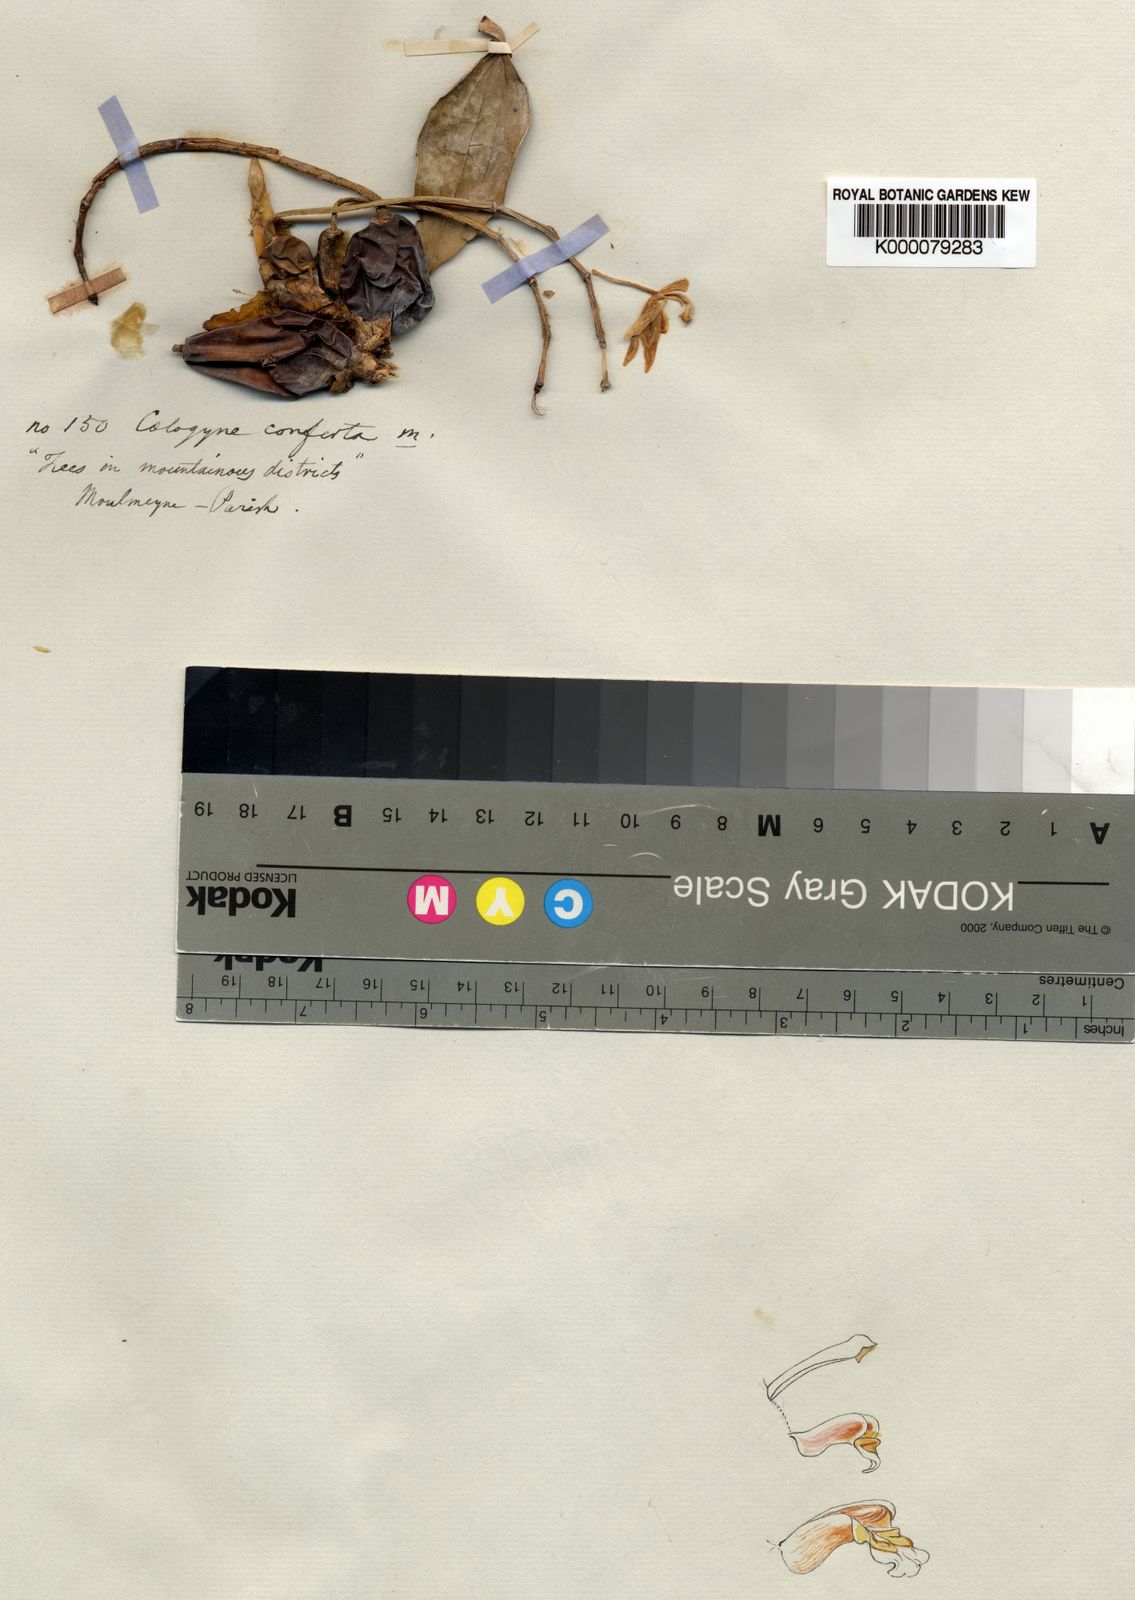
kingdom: Plantae
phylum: Tracheophyta
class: Liliopsida
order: Asparagales
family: Orchidaceae
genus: Coelogyne
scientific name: Coelogyne nitida
